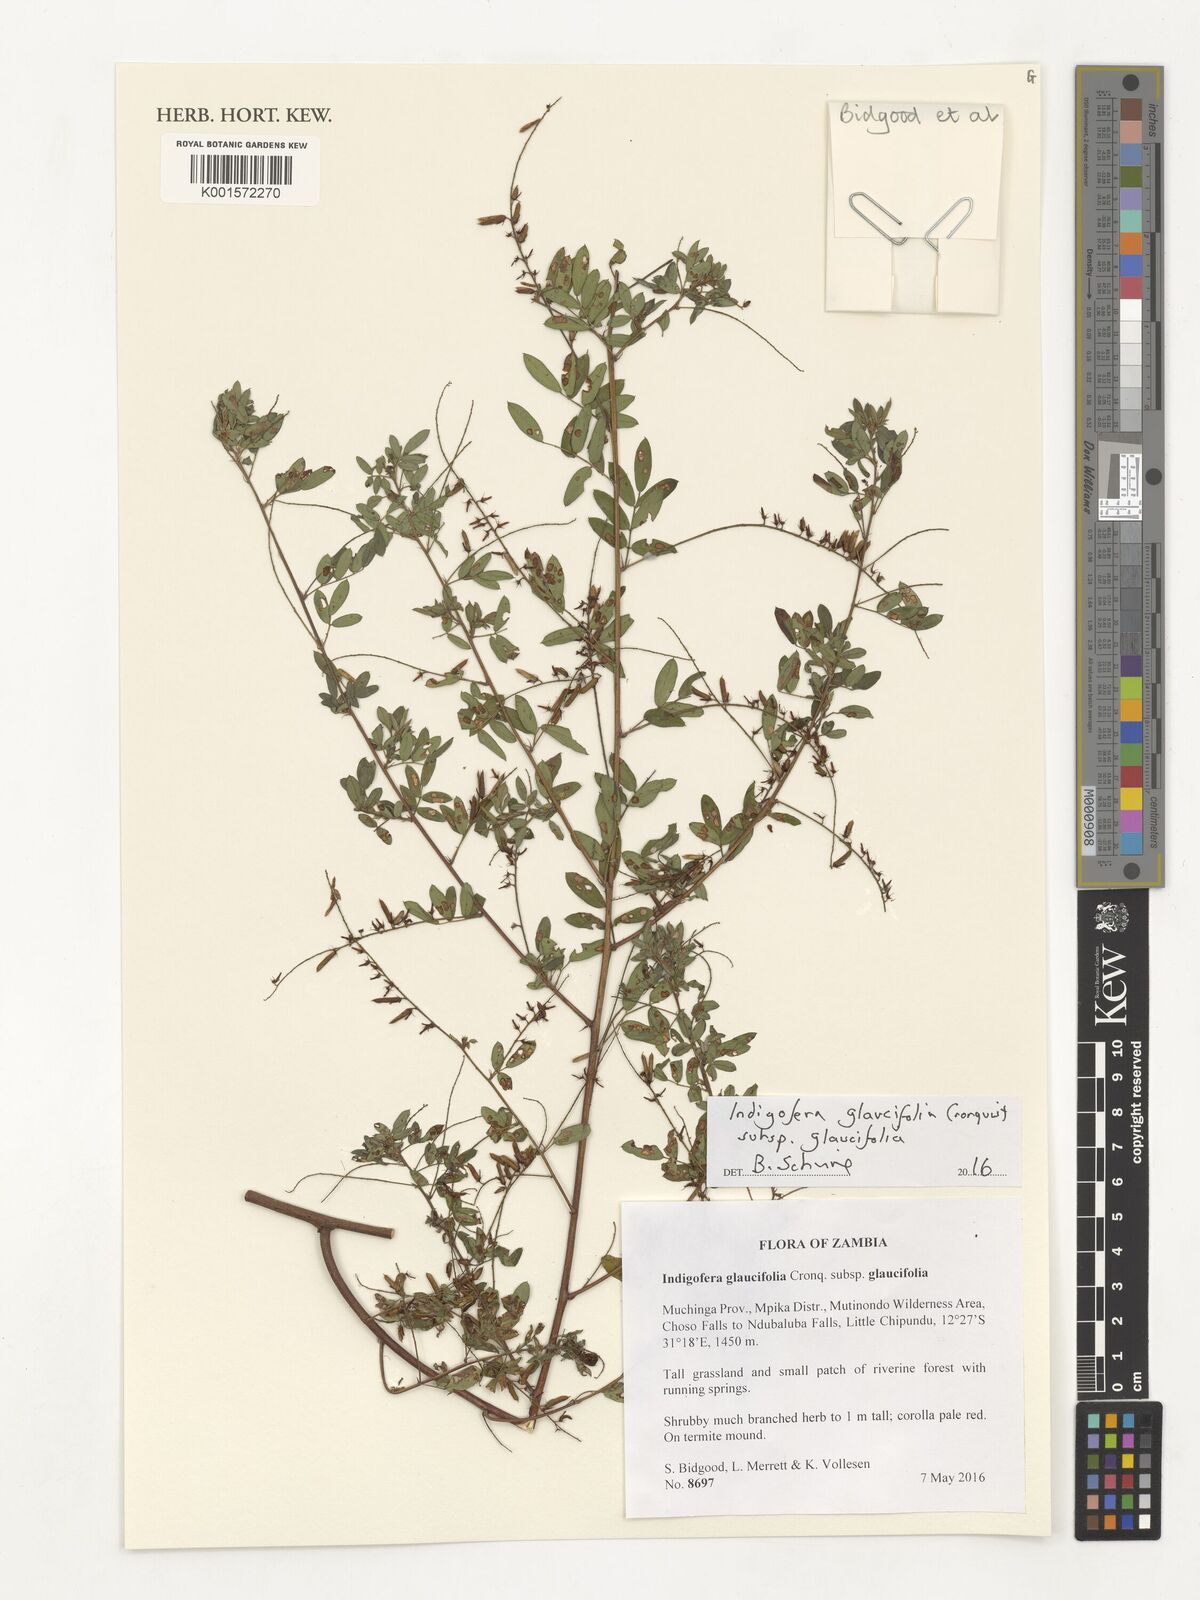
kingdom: Plantae
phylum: Tracheophyta
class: Magnoliopsida
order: Fabales
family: Fabaceae
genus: Indigofera
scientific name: Indigofera glaucifolia
